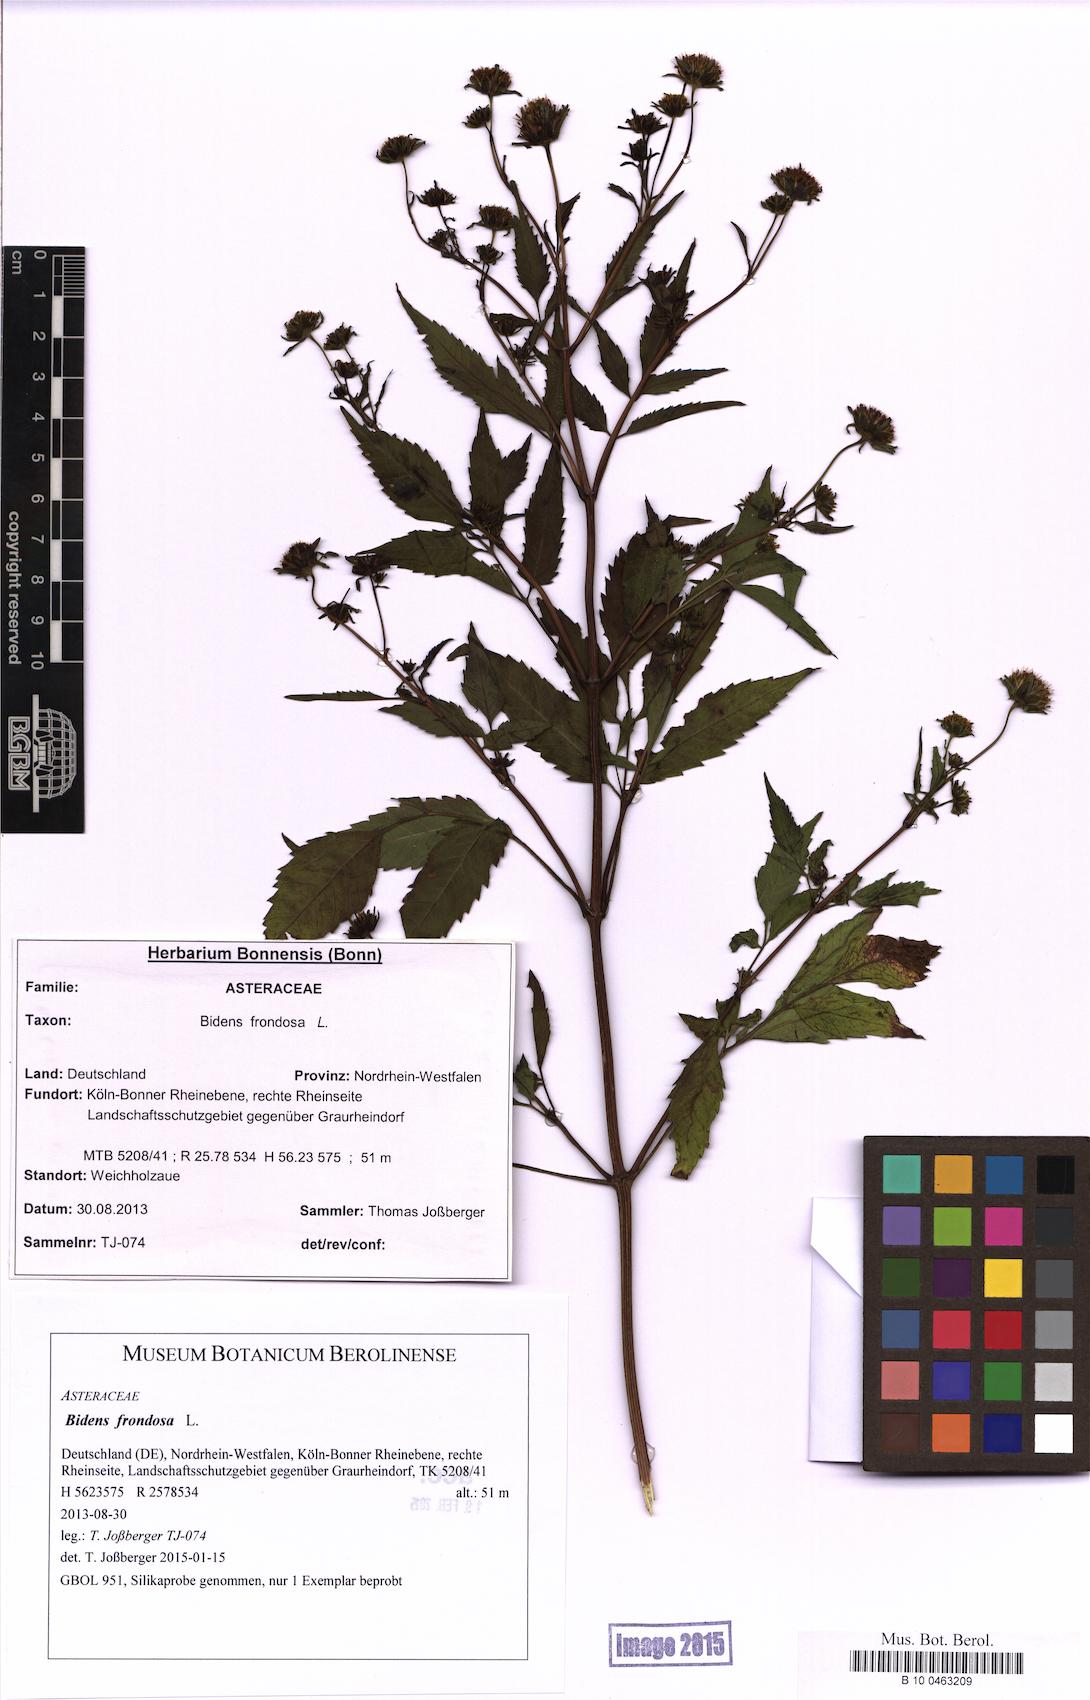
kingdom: Plantae
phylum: Tracheophyta
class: Magnoliopsida
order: Asterales
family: Asteraceae
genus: Bidens
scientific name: Bidens frondosa
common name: Beggarticks
